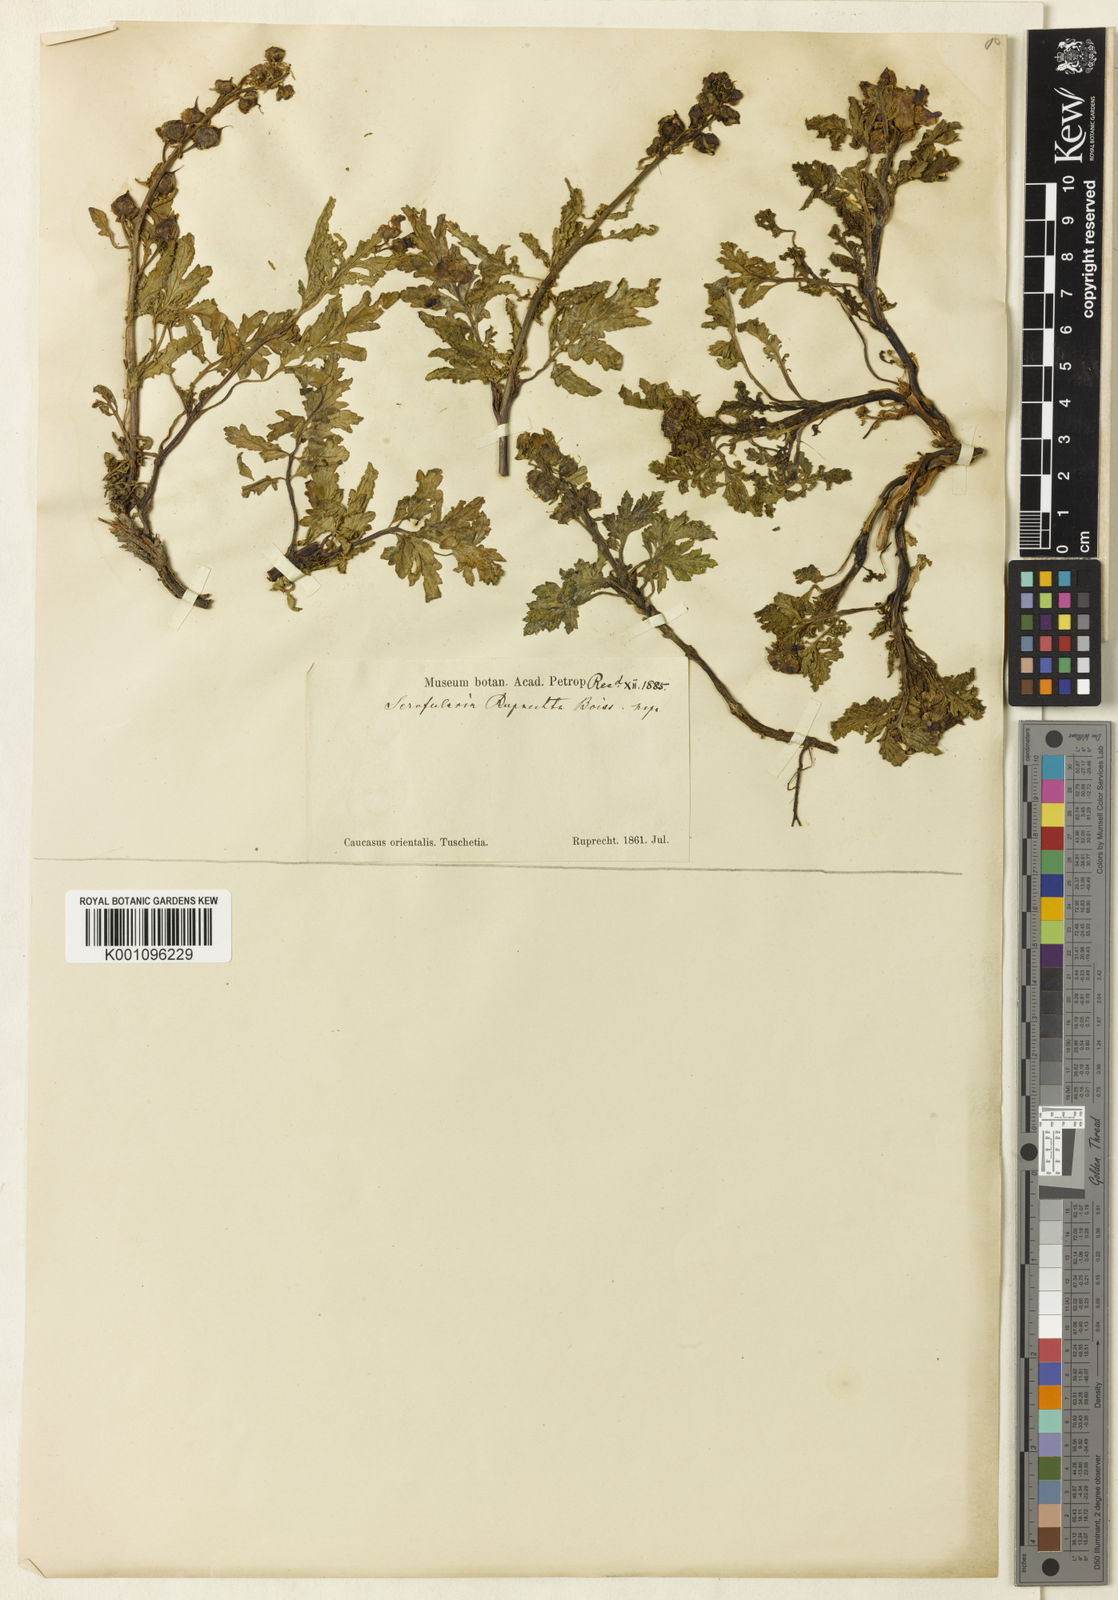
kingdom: Plantae
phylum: Tracheophyta
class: Magnoliopsida
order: Lamiales
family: Scrophulariaceae
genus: Scrophularia
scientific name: Scrophularia ruprechtii
